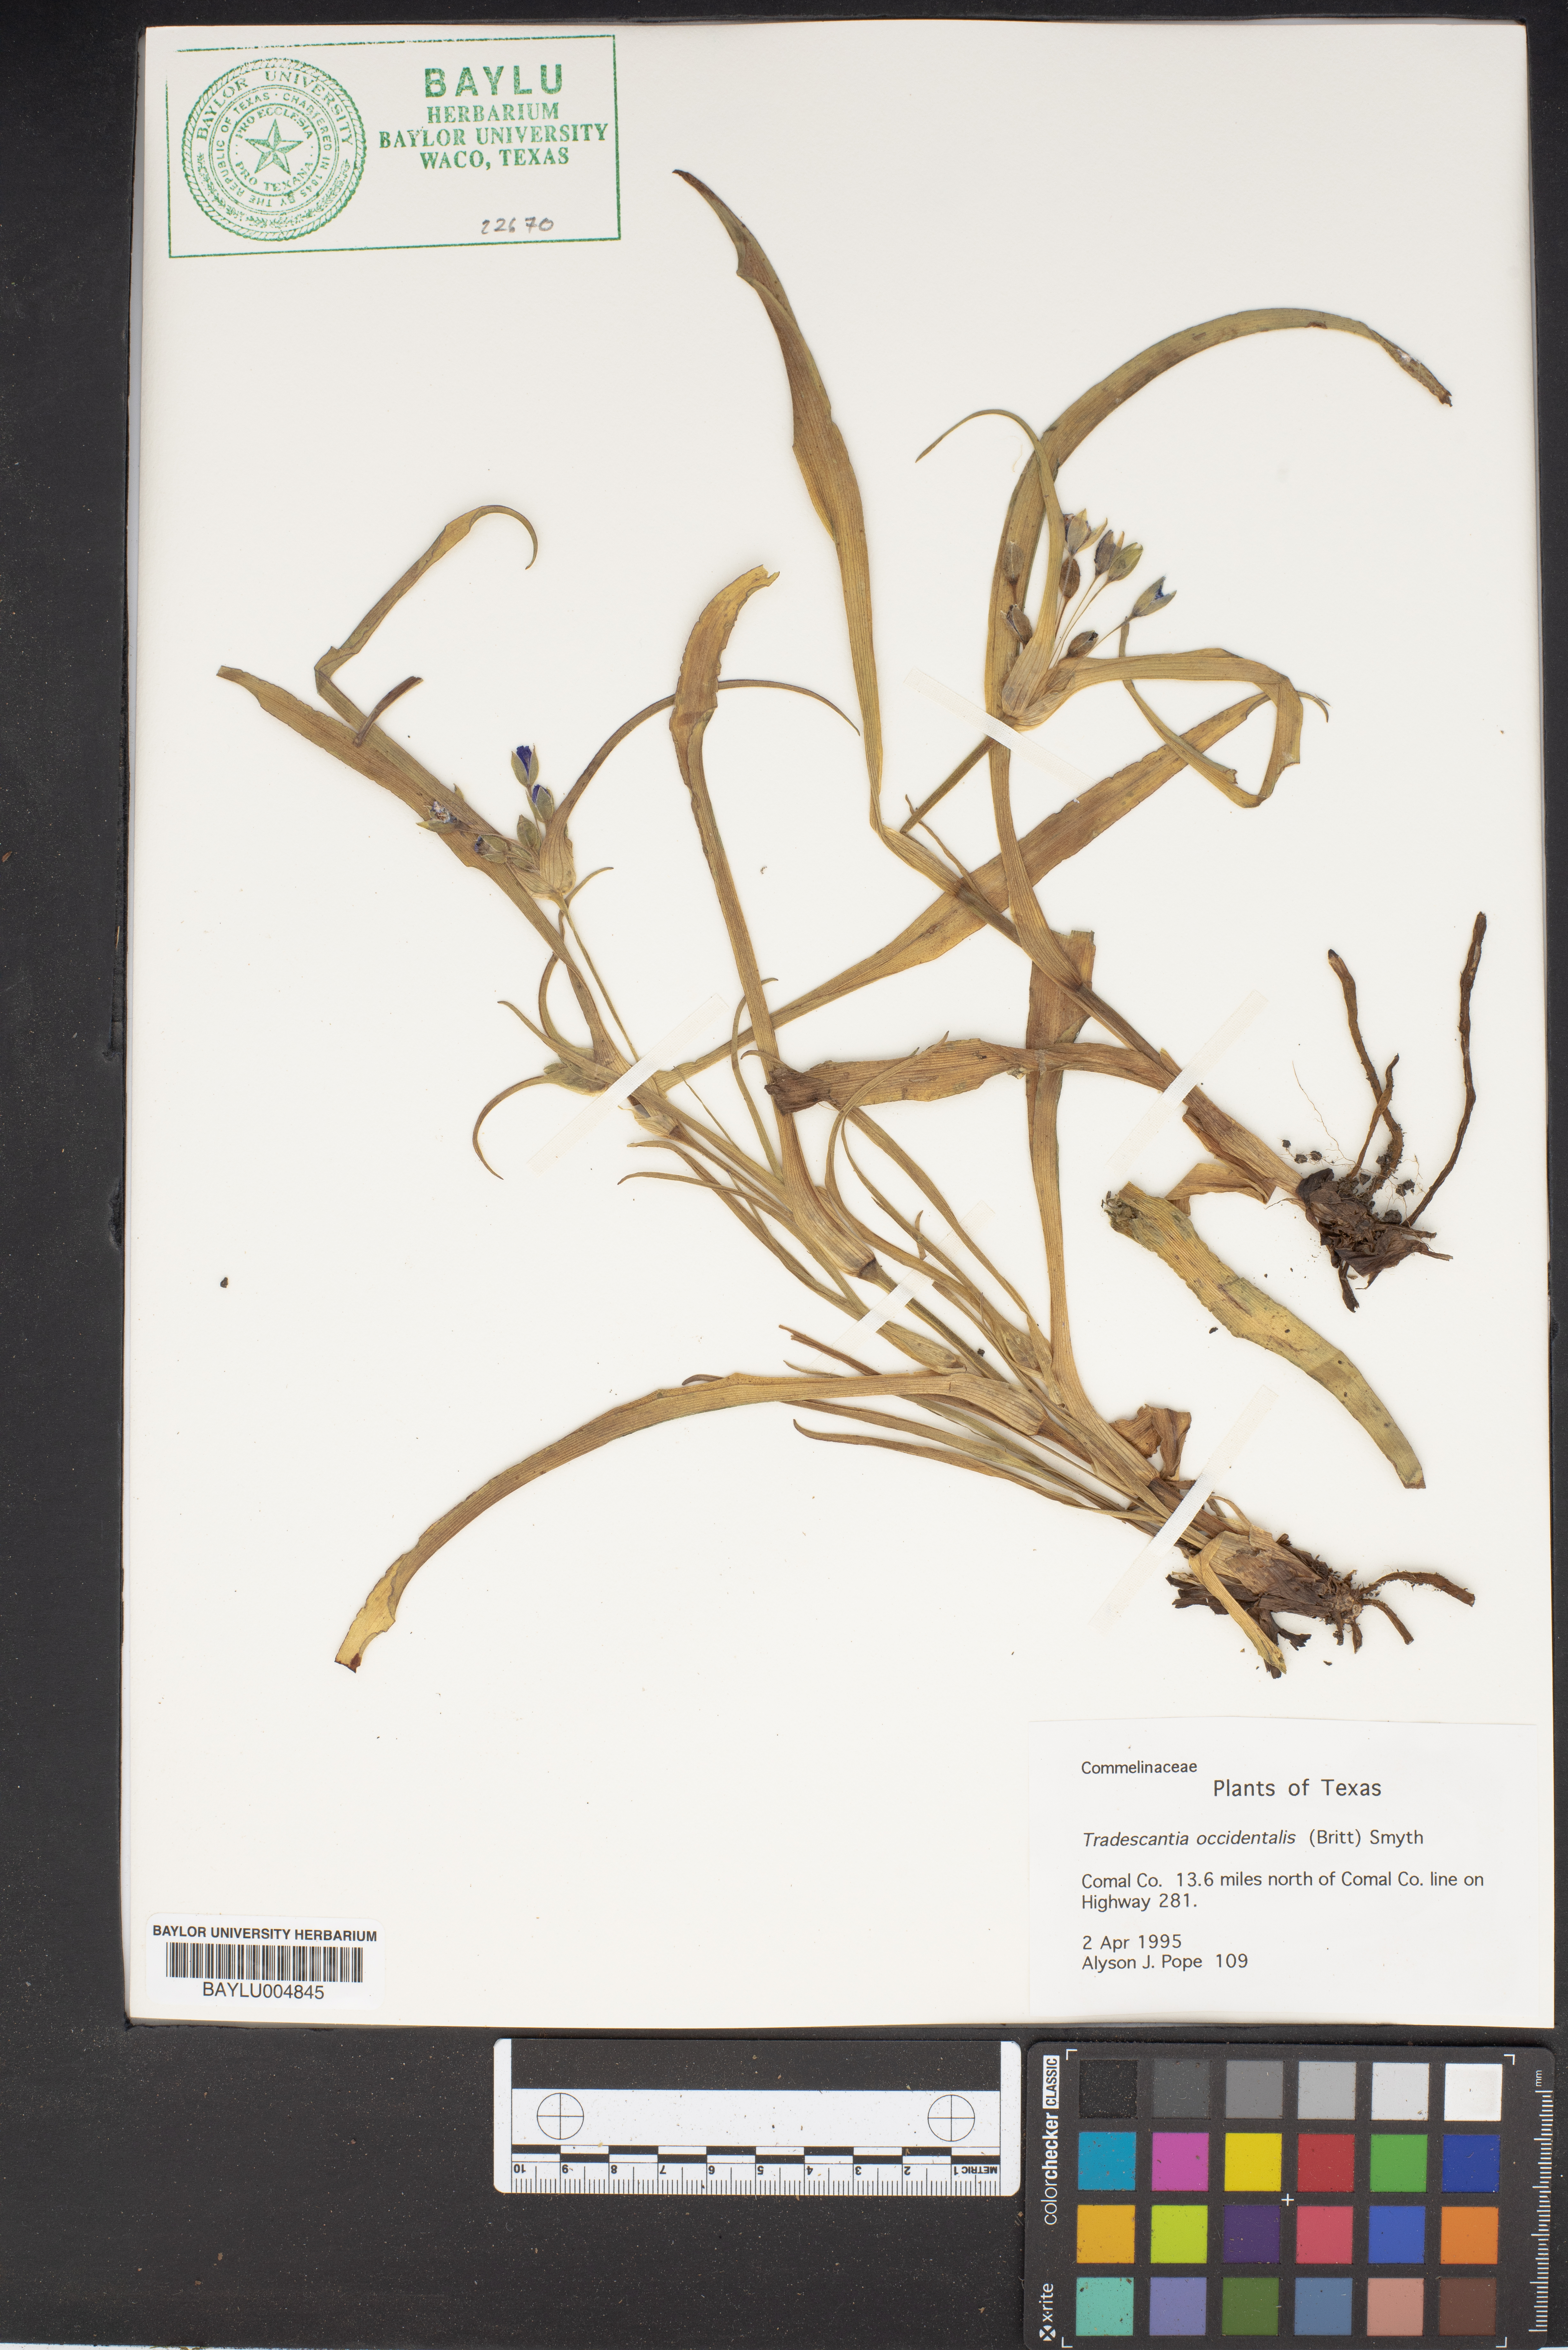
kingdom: Plantae
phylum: Tracheophyta
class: Liliopsida
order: Commelinales
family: Commelinaceae
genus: Tradescantia
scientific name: Tradescantia occidentalis
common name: Prairie spiderwort
